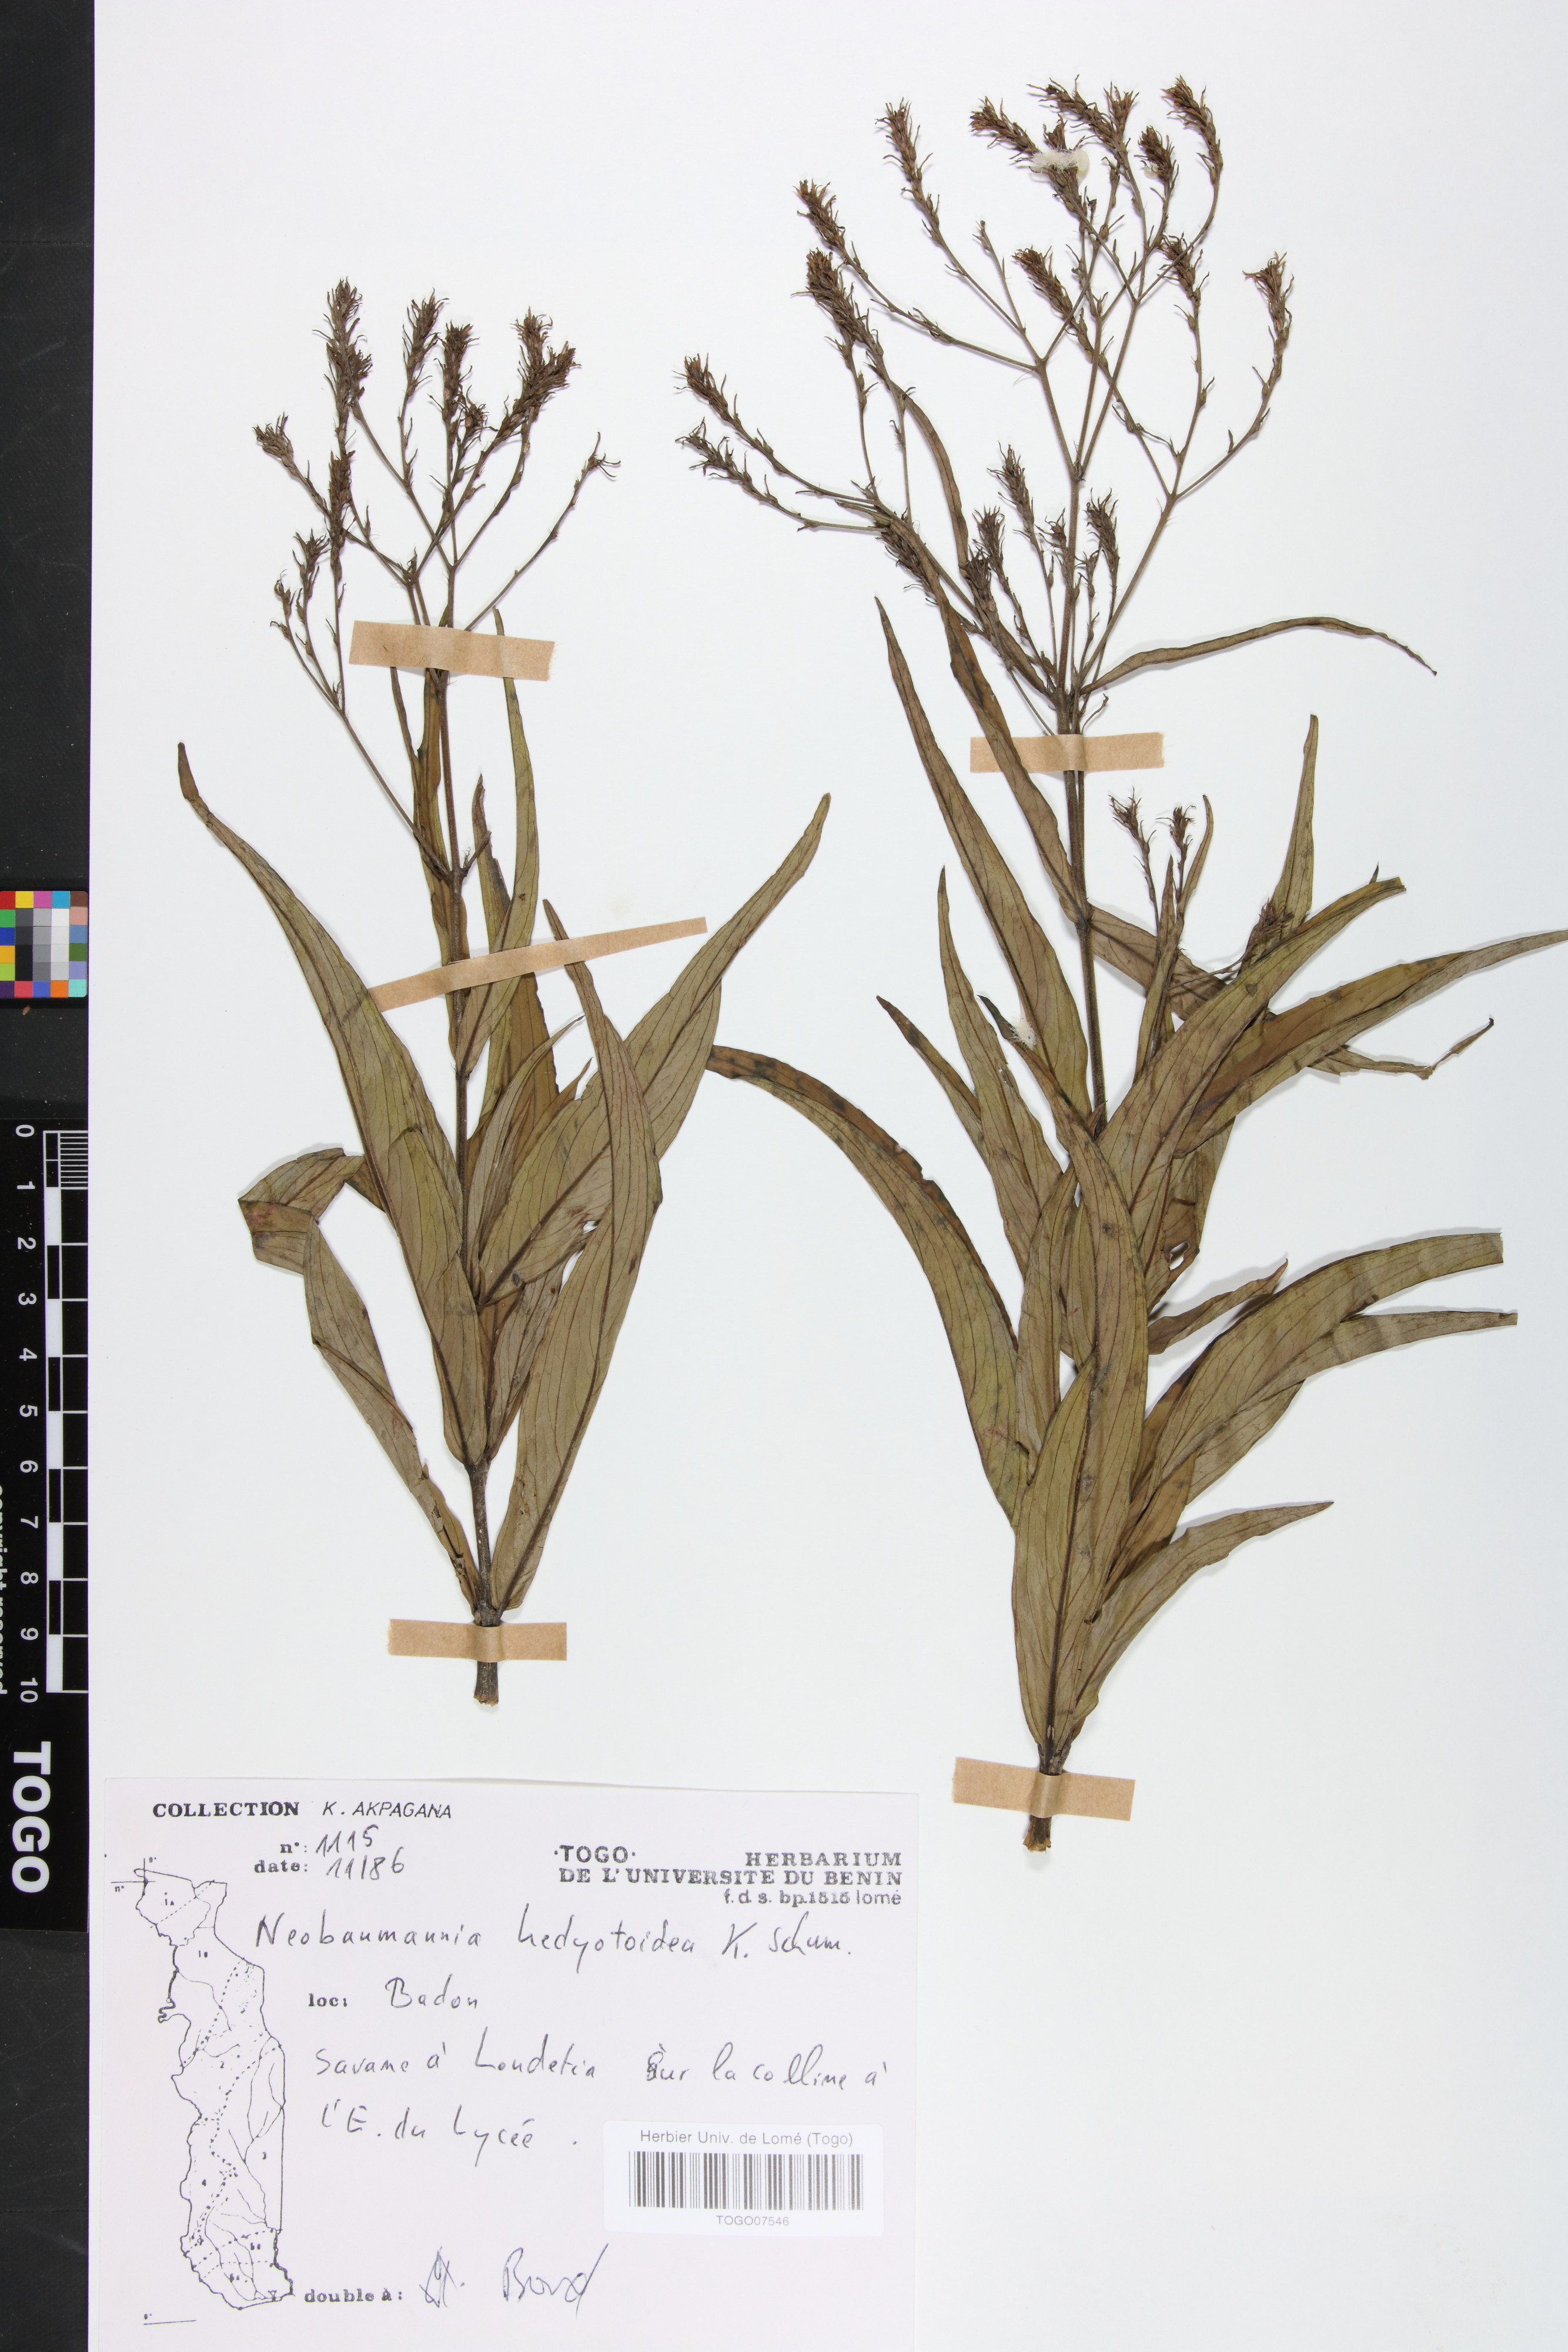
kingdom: Plantae
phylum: Tracheophyta
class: Magnoliopsida
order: Gentianales
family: Rubiaceae
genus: Knoxia
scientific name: Knoxia hedyotoidea
